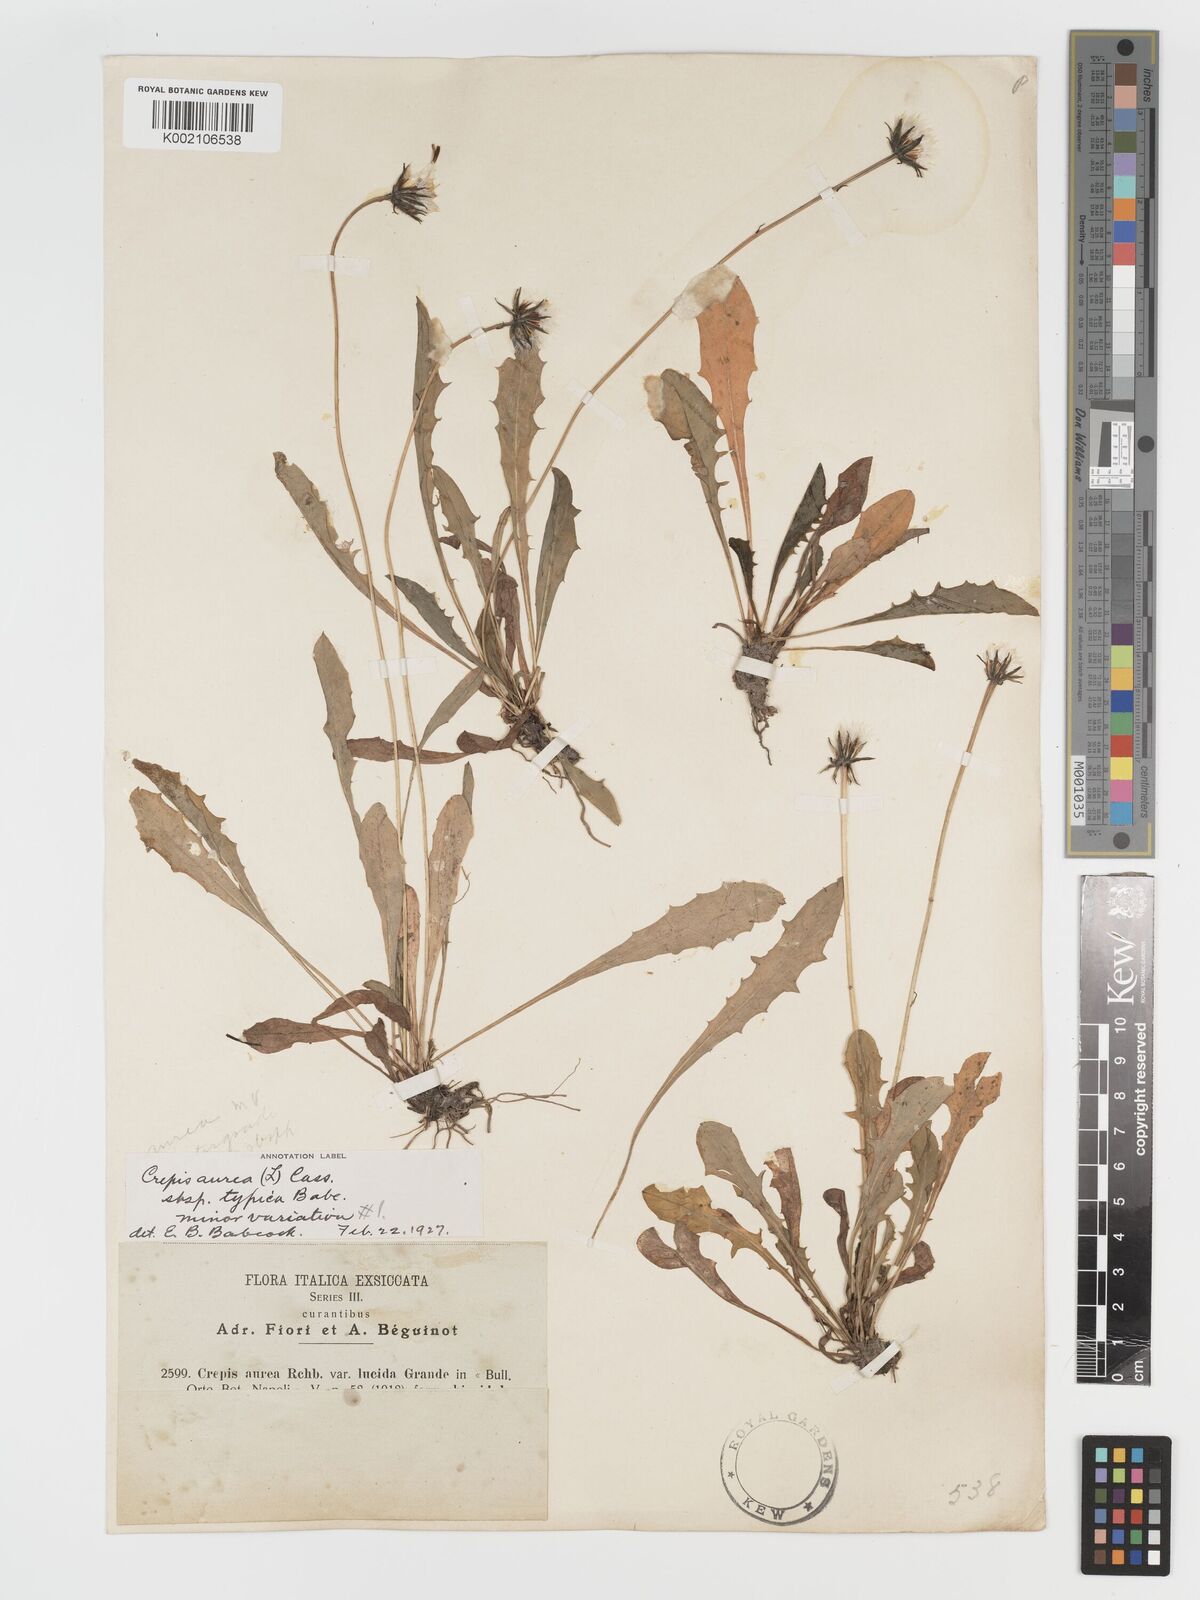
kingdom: Plantae
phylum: Tracheophyta
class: Magnoliopsida
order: Asterales
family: Asteraceae
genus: Crepis
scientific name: Crepis aurea
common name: Golden hawk's-beard
